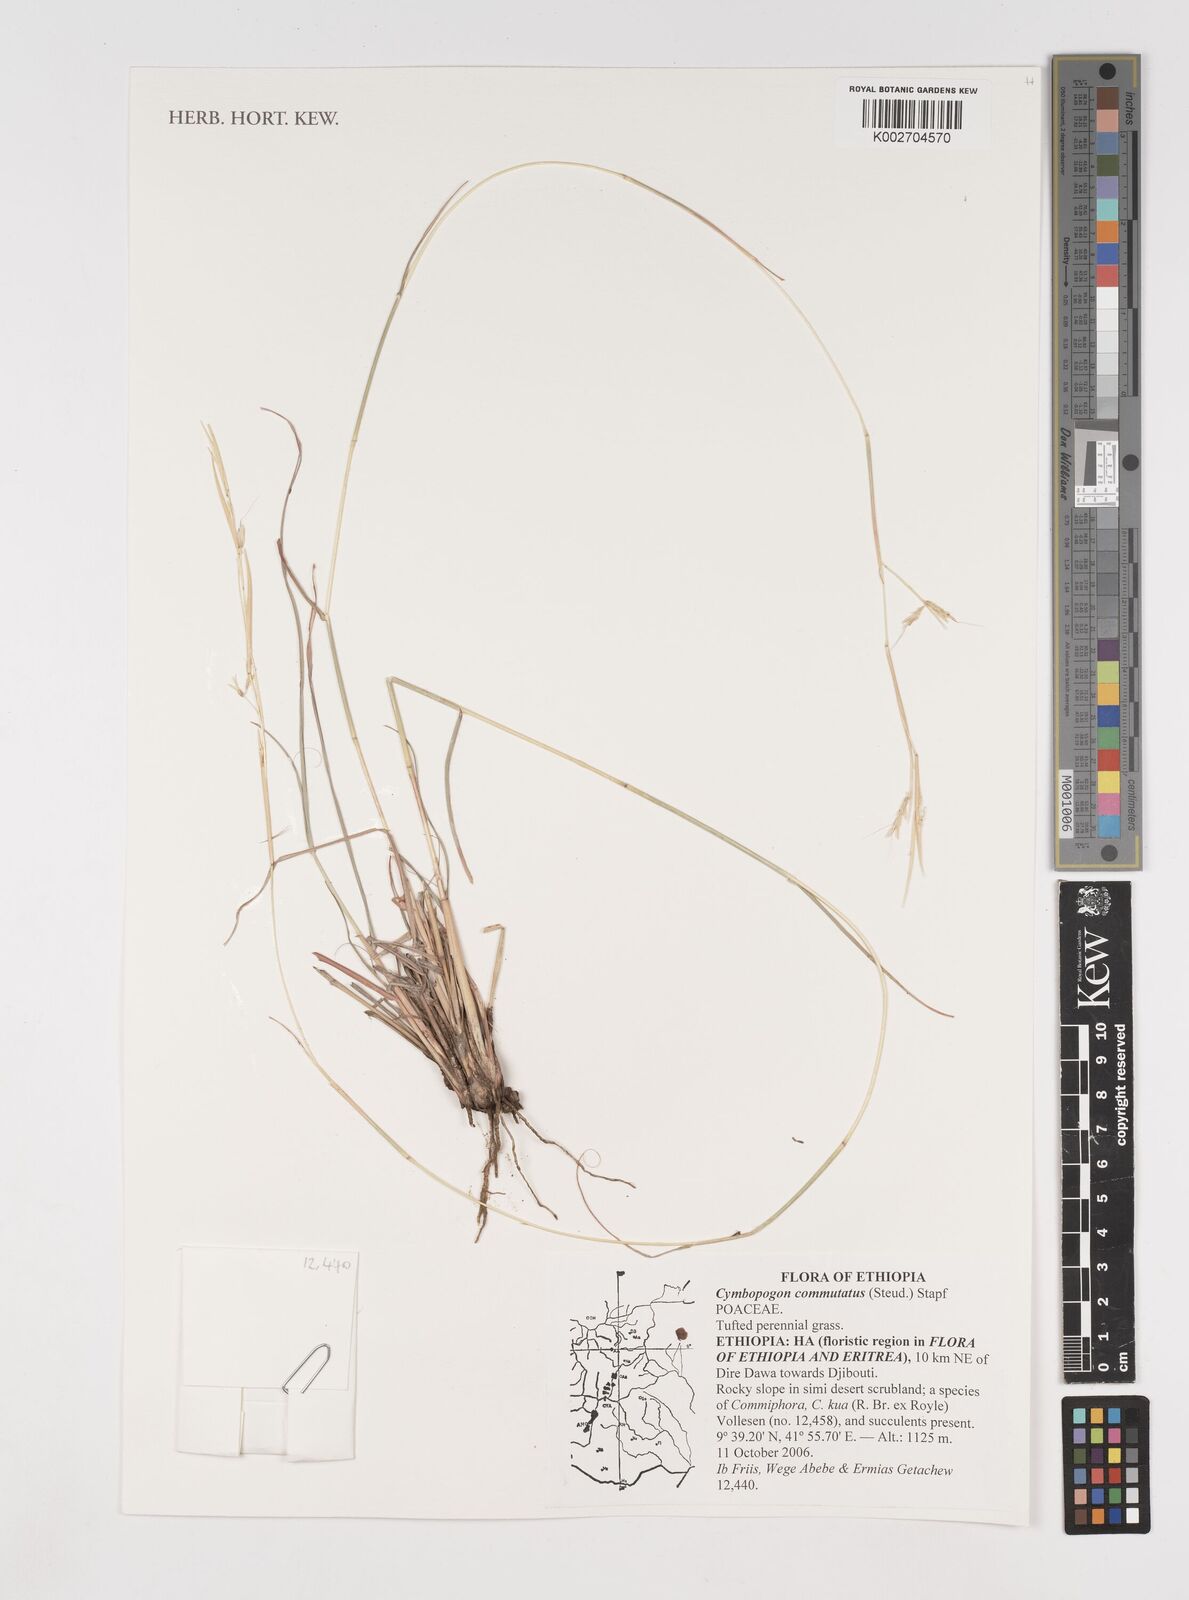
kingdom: Plantae
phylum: Tracheophyta
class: Liliopsida
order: Poales
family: Poaceae
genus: Cymbopogon
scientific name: Cymbopogon commutatus
